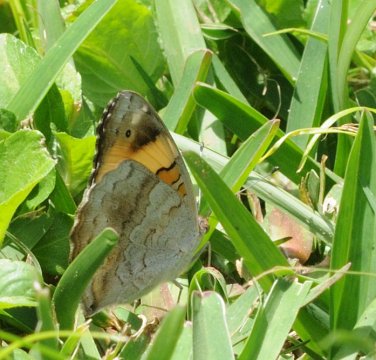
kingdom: Animalia
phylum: Arthropoda
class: Insecta
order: Lepidoptera
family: Nymphalidae
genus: Junonia
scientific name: Junonia hierta
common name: Yellow Pansy
